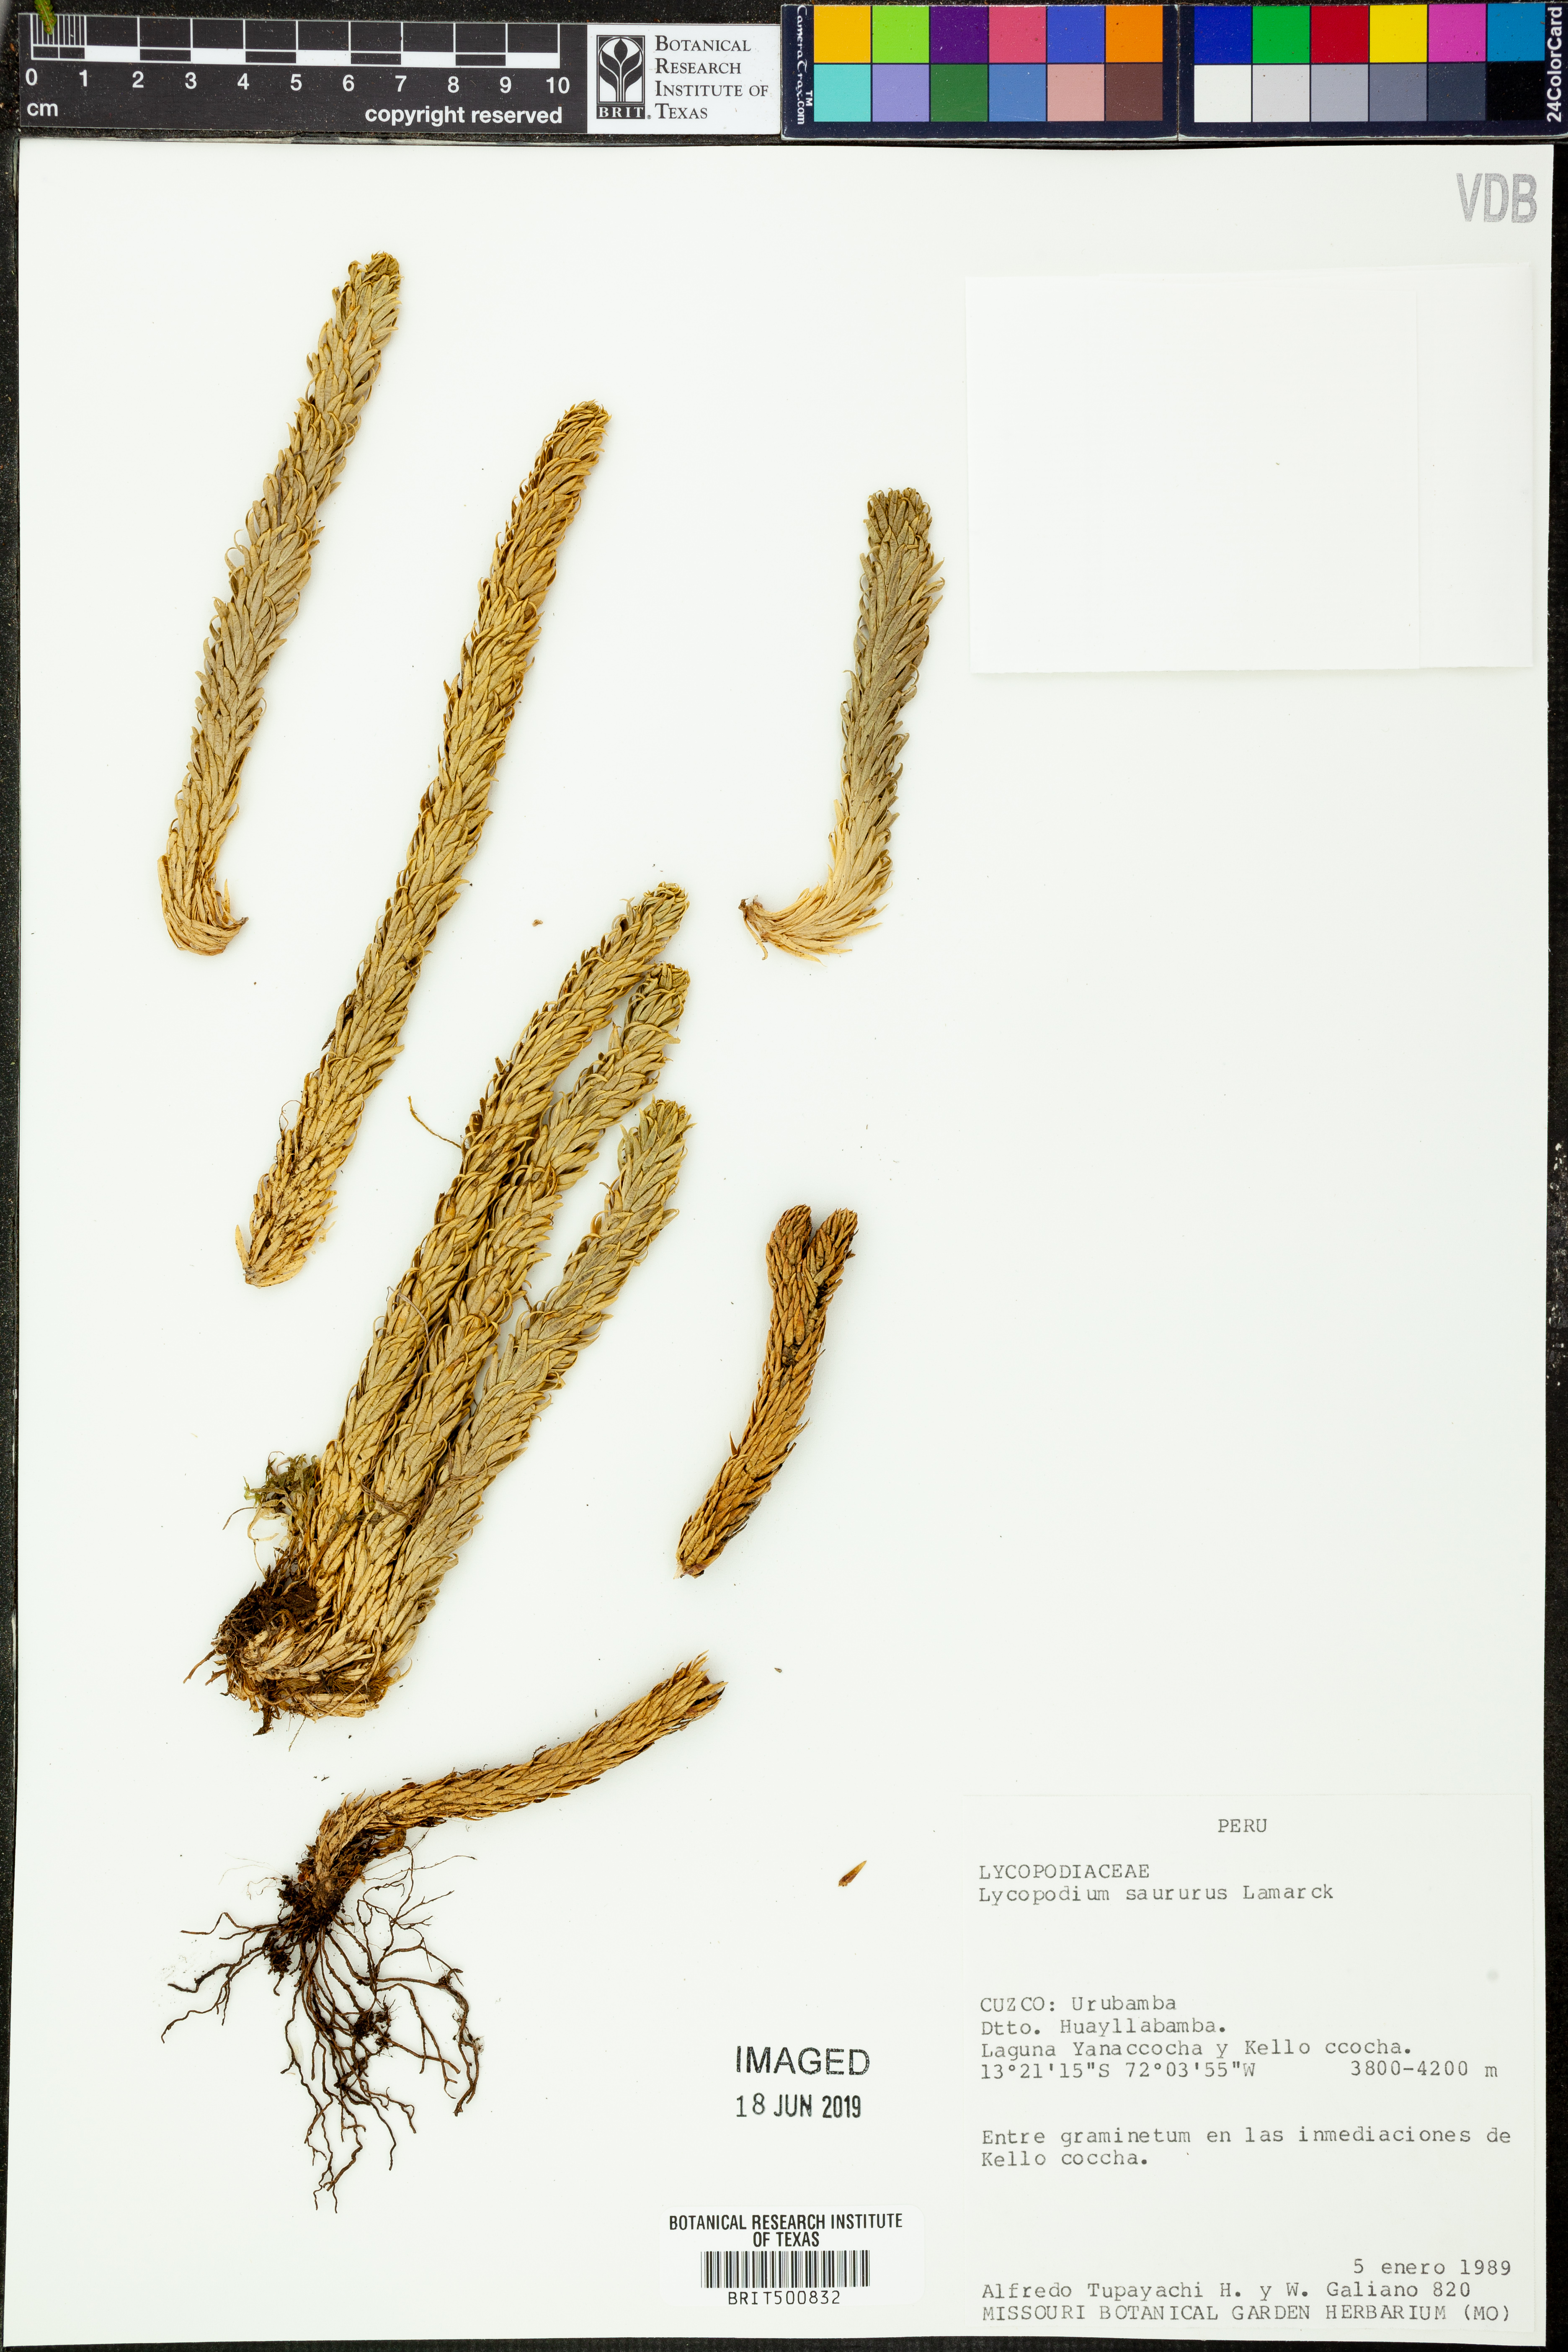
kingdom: Plantae
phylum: Tracheophyta
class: Lycopodiopsida
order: Lycopodiales
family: Lycopodiaceae
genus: Phlegmariurus
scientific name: Phlegmariurus saururus
